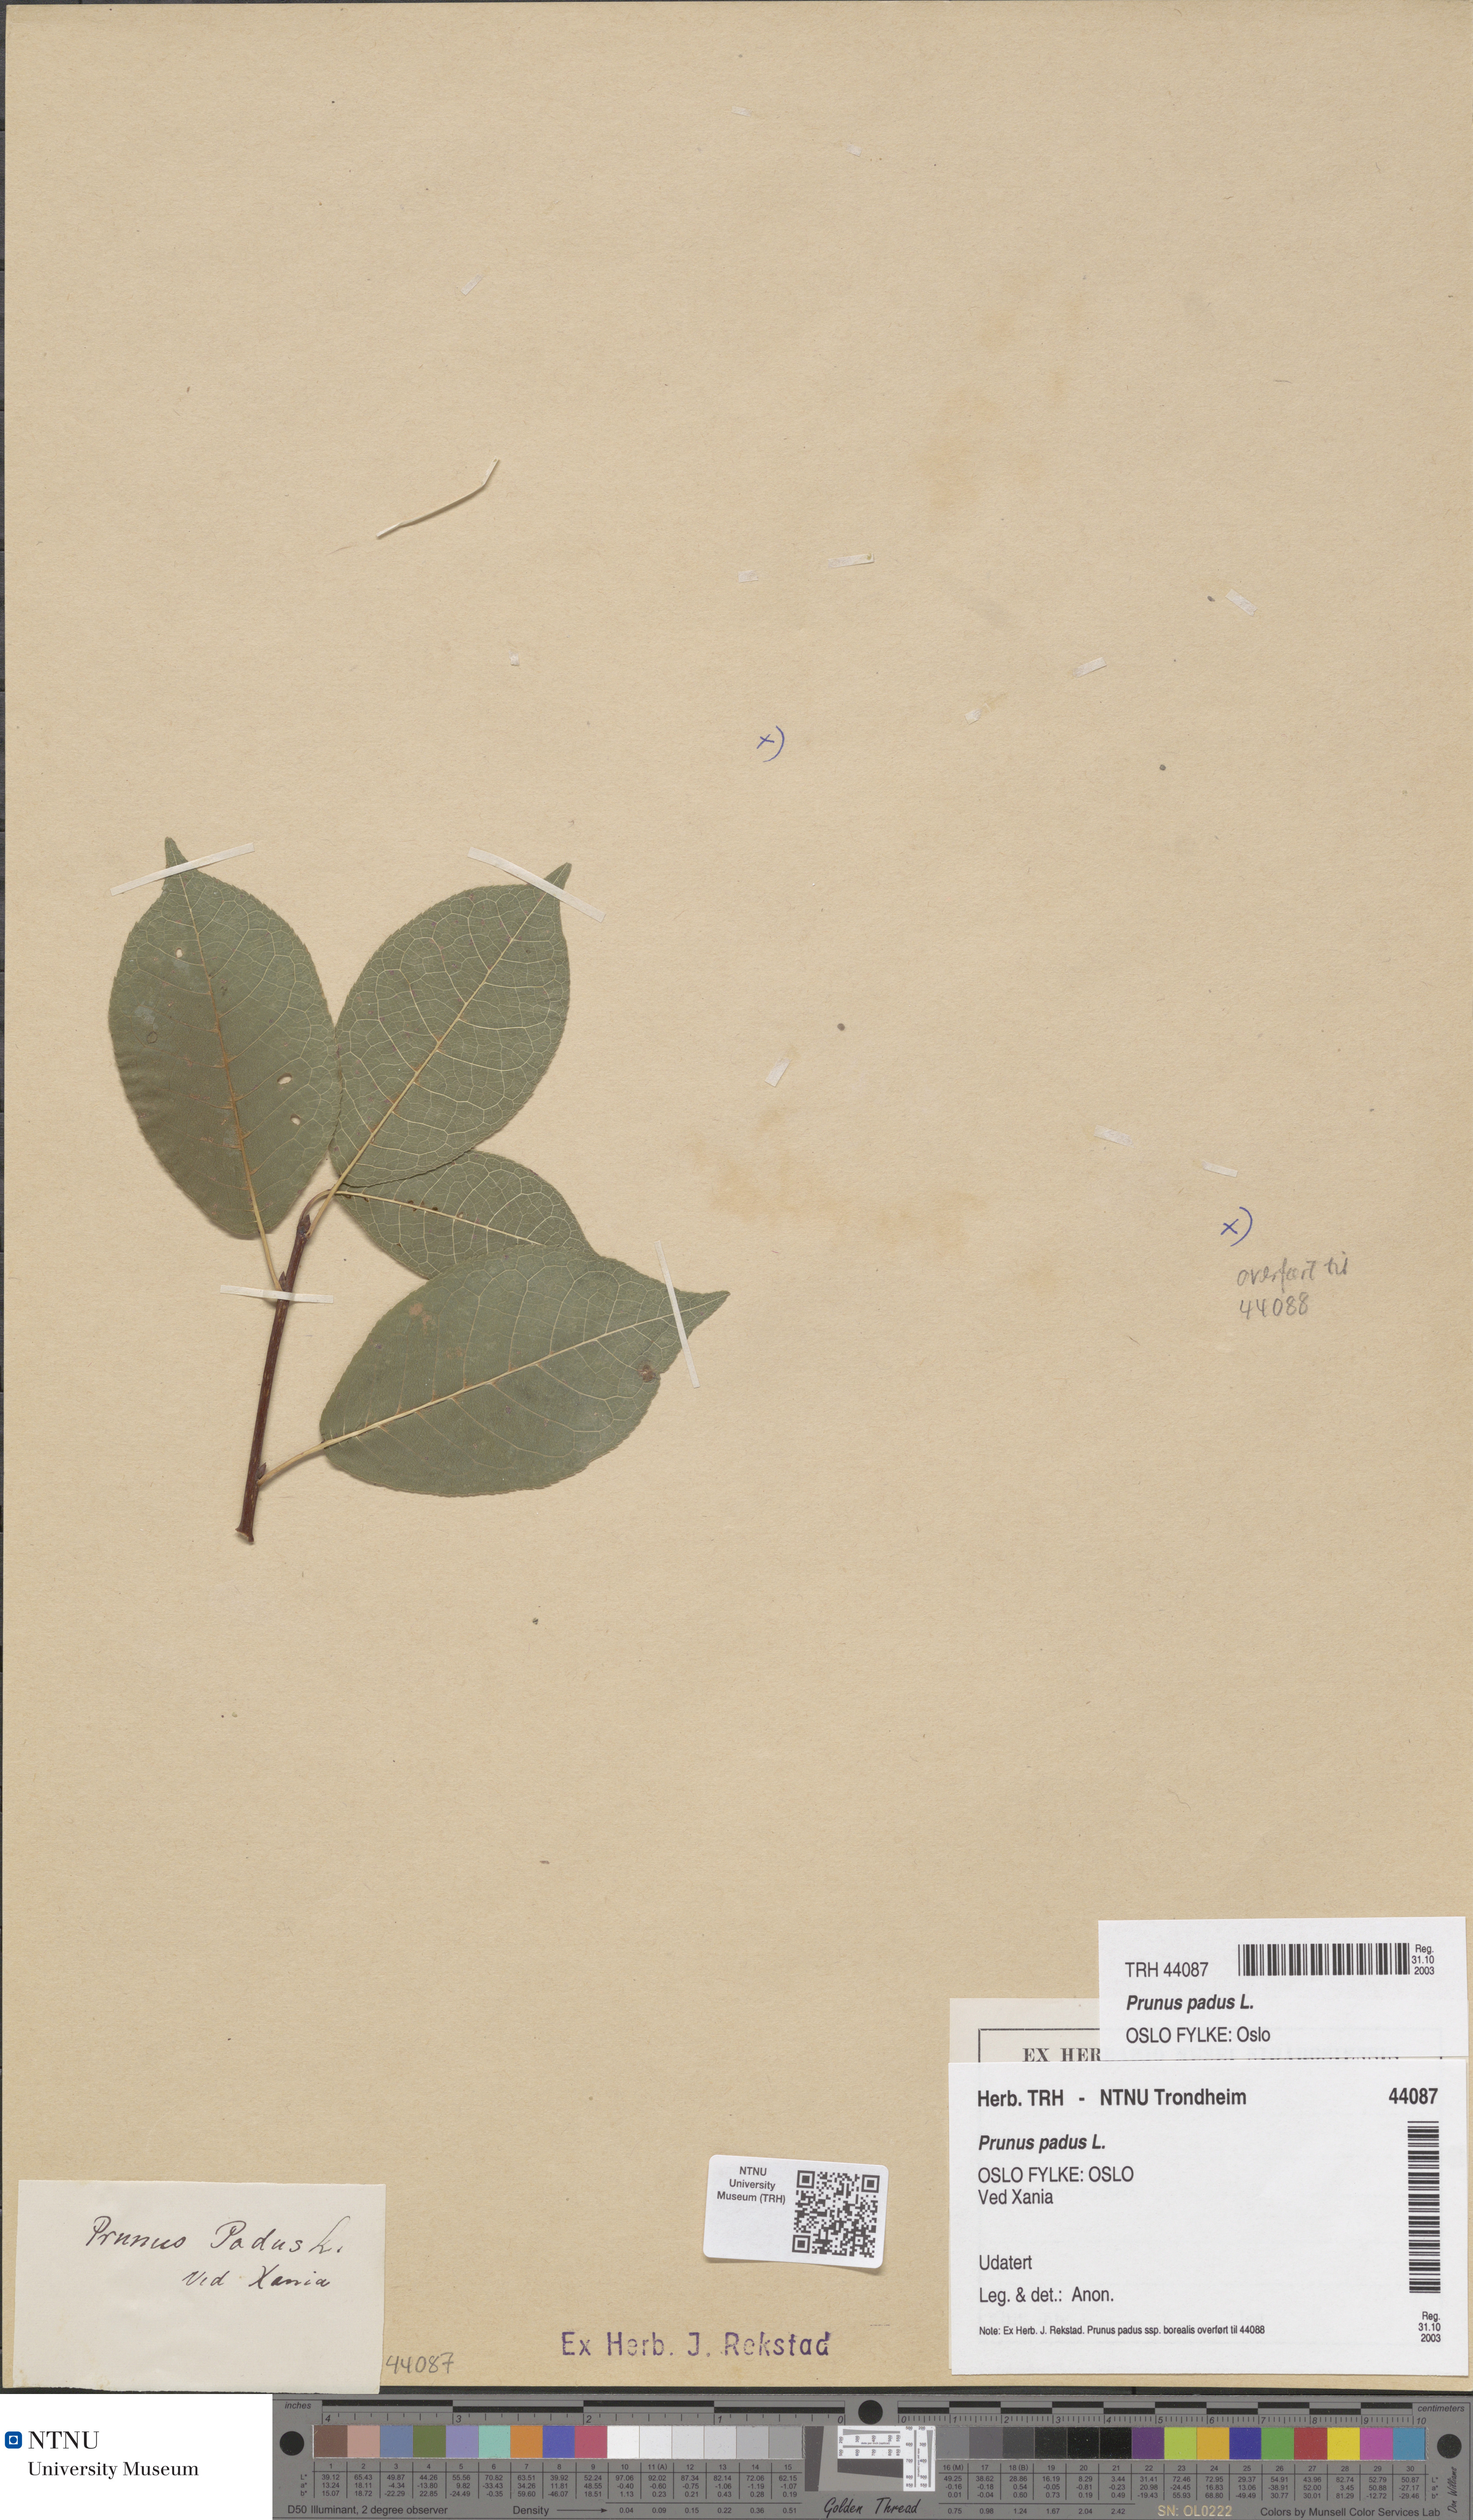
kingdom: Plantae
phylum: Tracheophyta
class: Magnoliopsida
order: Rosales
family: Rosaceae
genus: Prunus
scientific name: Prunus padus
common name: Bird cherry
